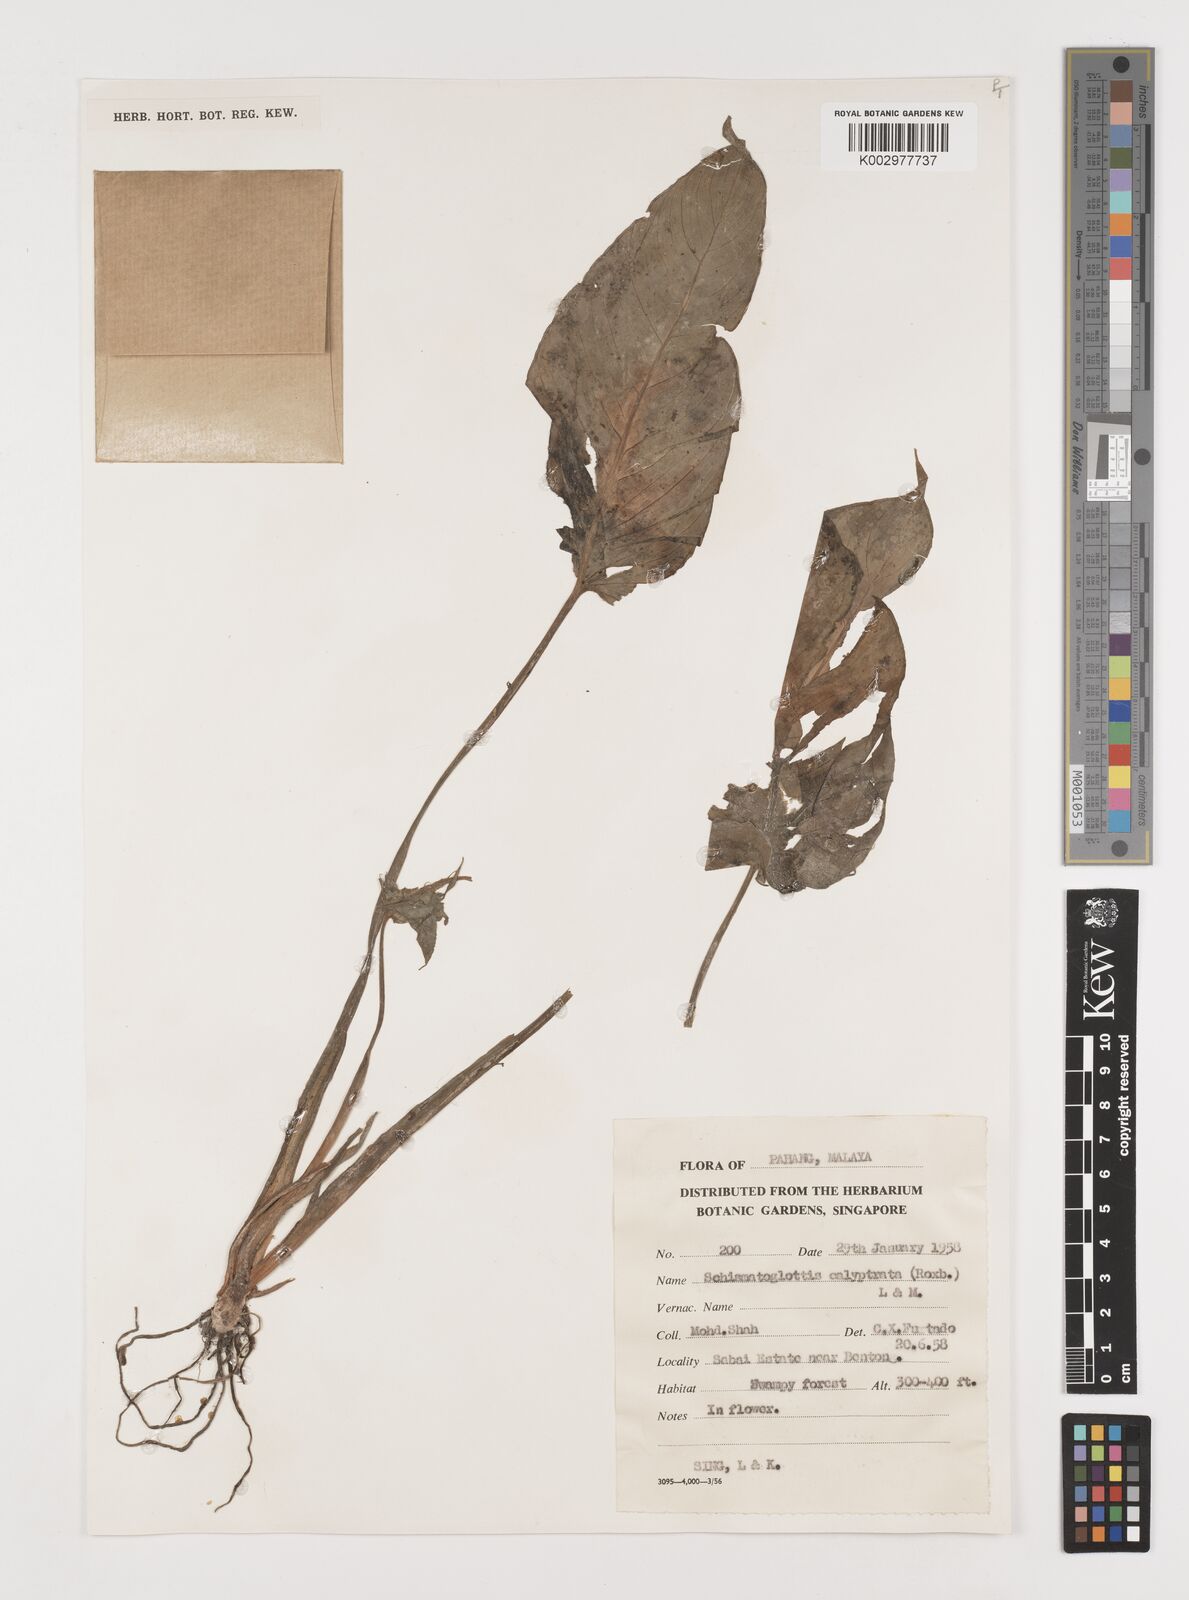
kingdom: Plantae
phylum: Tracheophyta
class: Liliopsida
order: Alismatales
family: Araceae
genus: Schismatoglottis
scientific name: Schismatoglottis calyptrata
